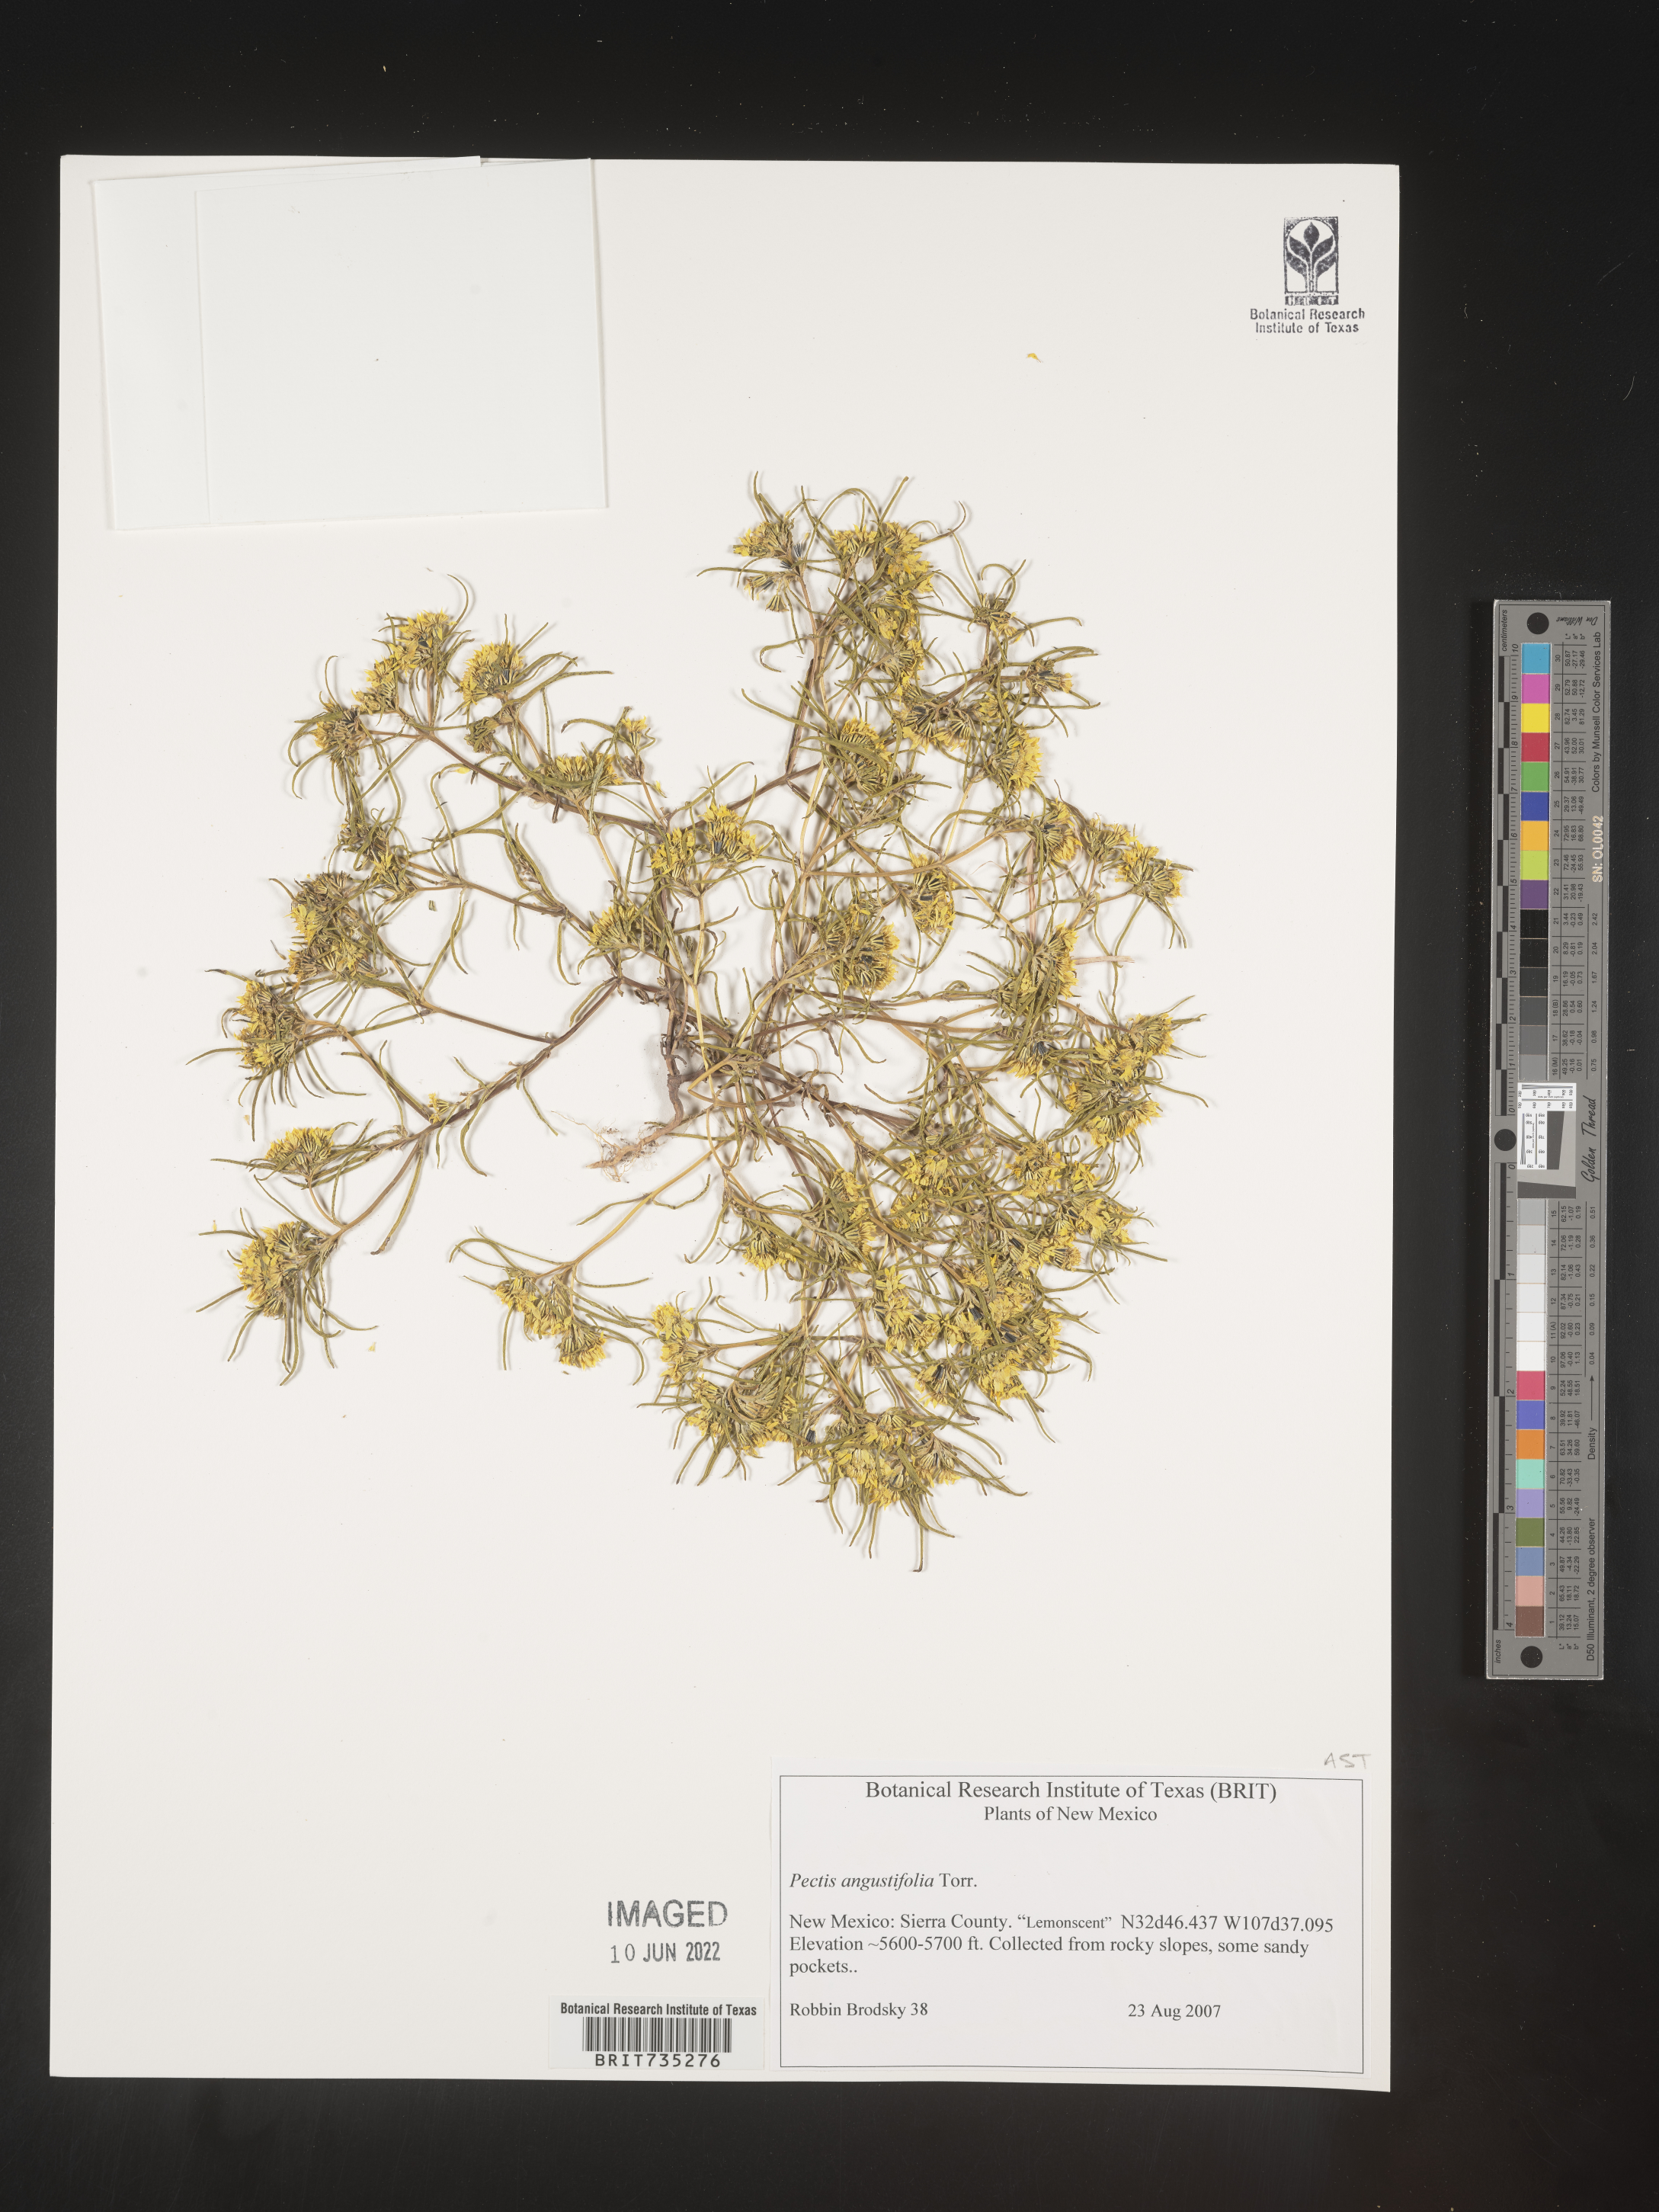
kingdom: Plantae
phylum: Tracheophyta
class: Magnoliopsida
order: Asterales
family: Asteraceae
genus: Pectis
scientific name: Pectis angustifolia
